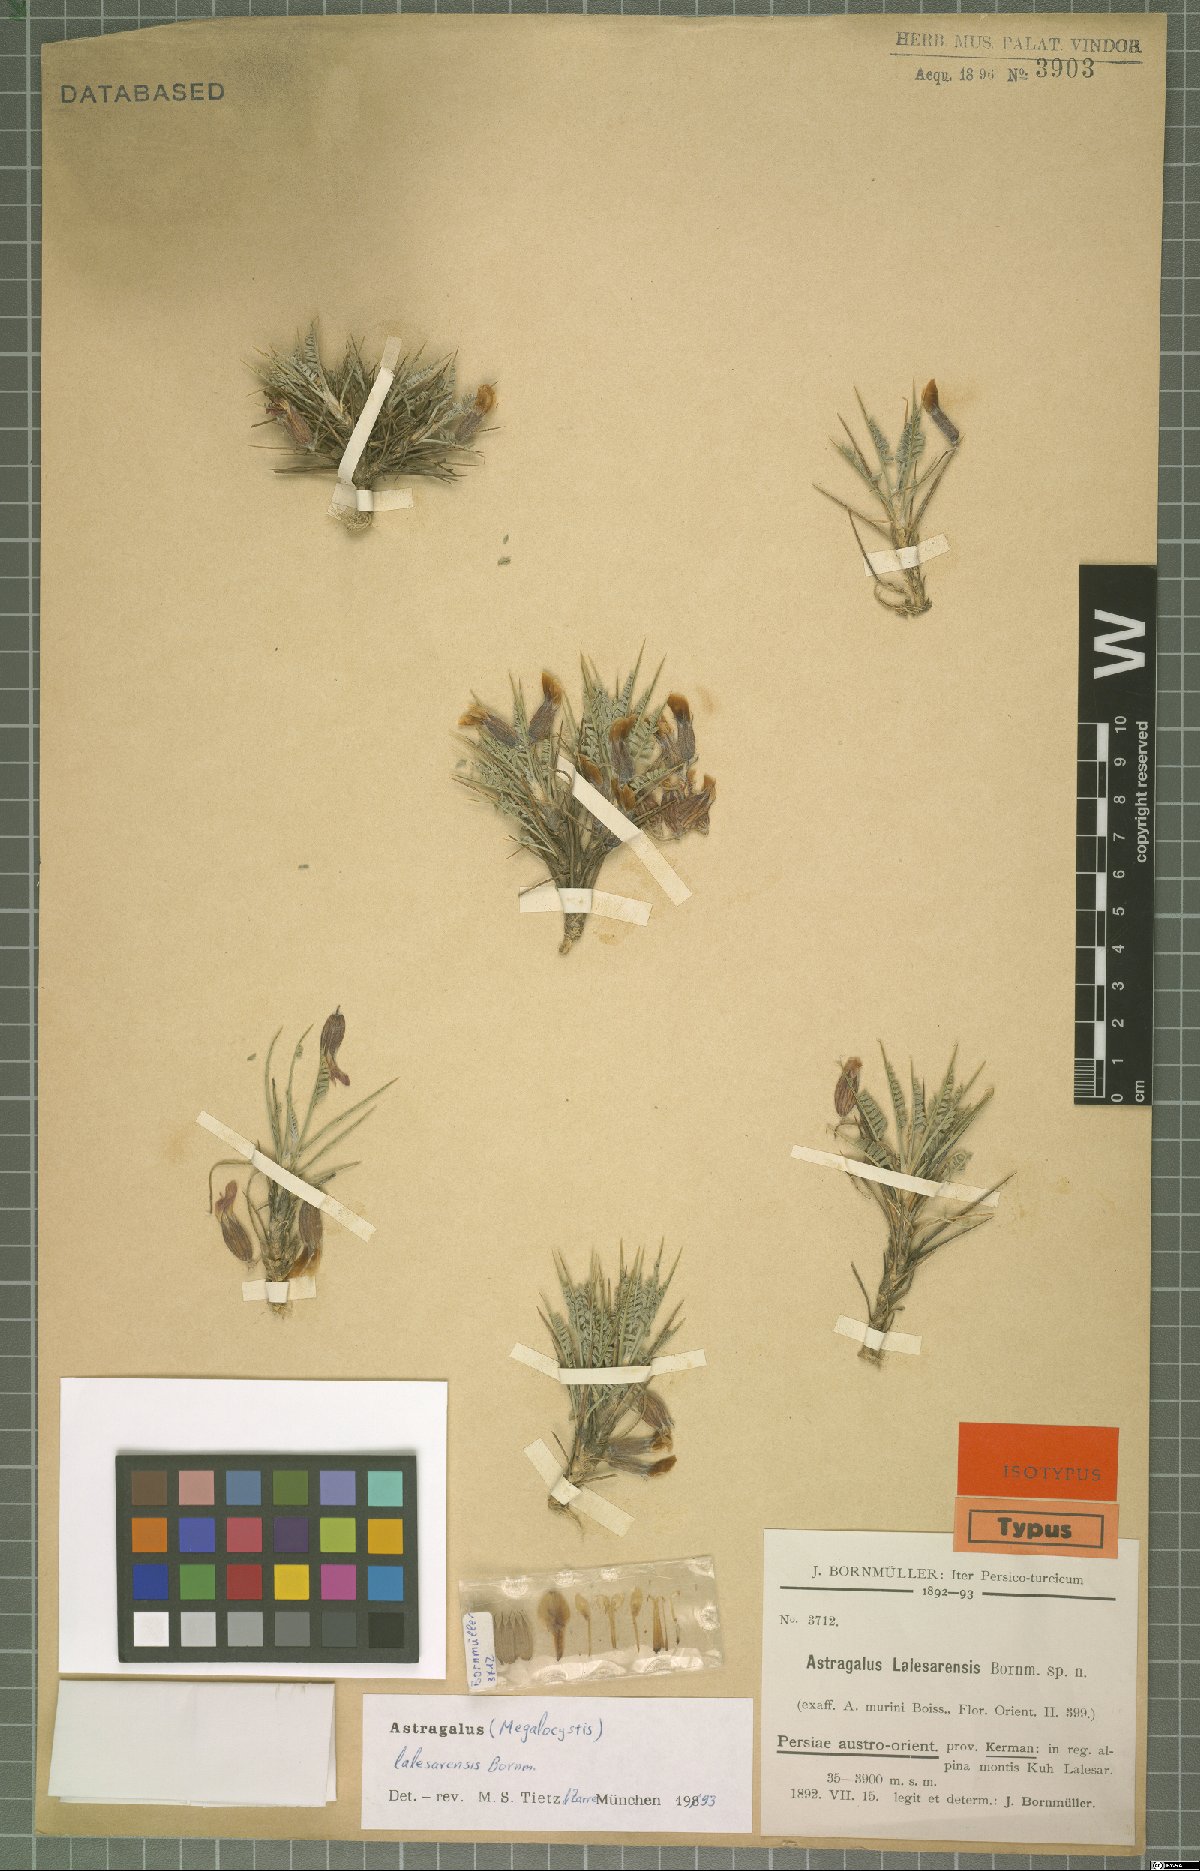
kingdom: Plantae
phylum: Tracheophyta
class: Magnoliopsida
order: Fabales
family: Fabaceae
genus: Astragalus
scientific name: Astragalus lalesarensis
